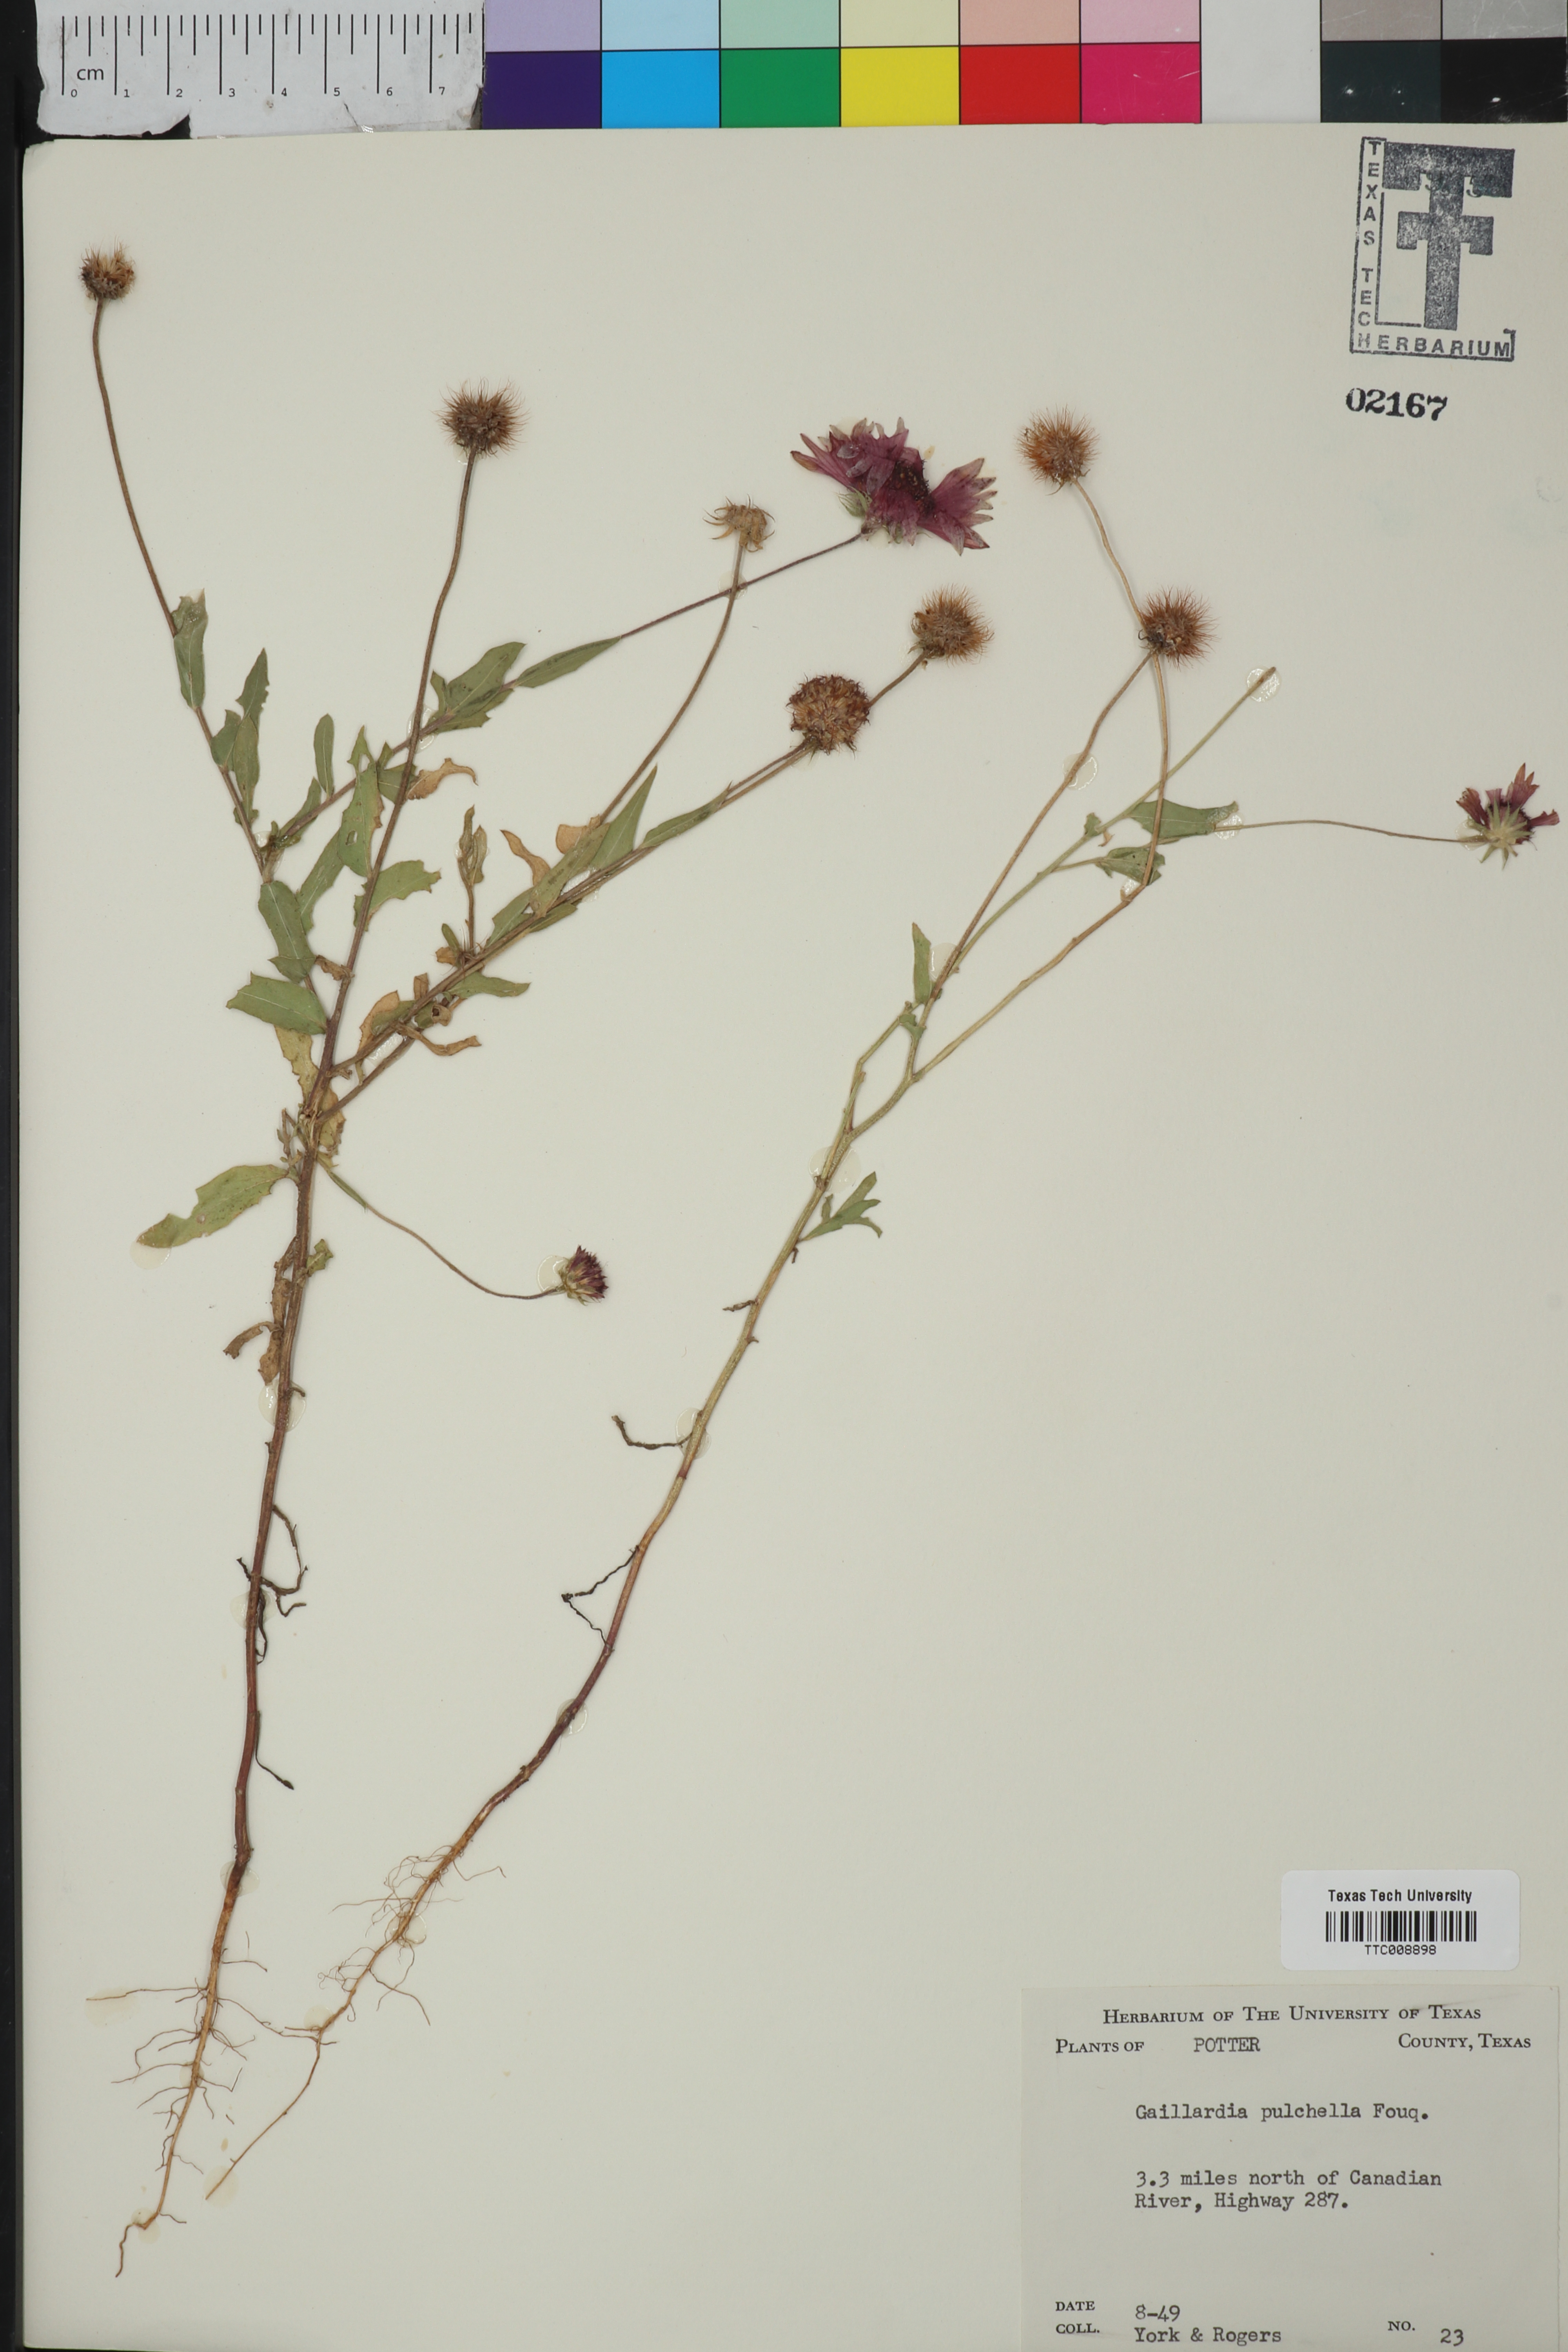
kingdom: Plantae
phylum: Tracheophyta
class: Magnoliopsida
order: Asterales
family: Asteraceae
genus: Gaillardia
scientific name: Gaillardia pulchella
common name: Firewheel
